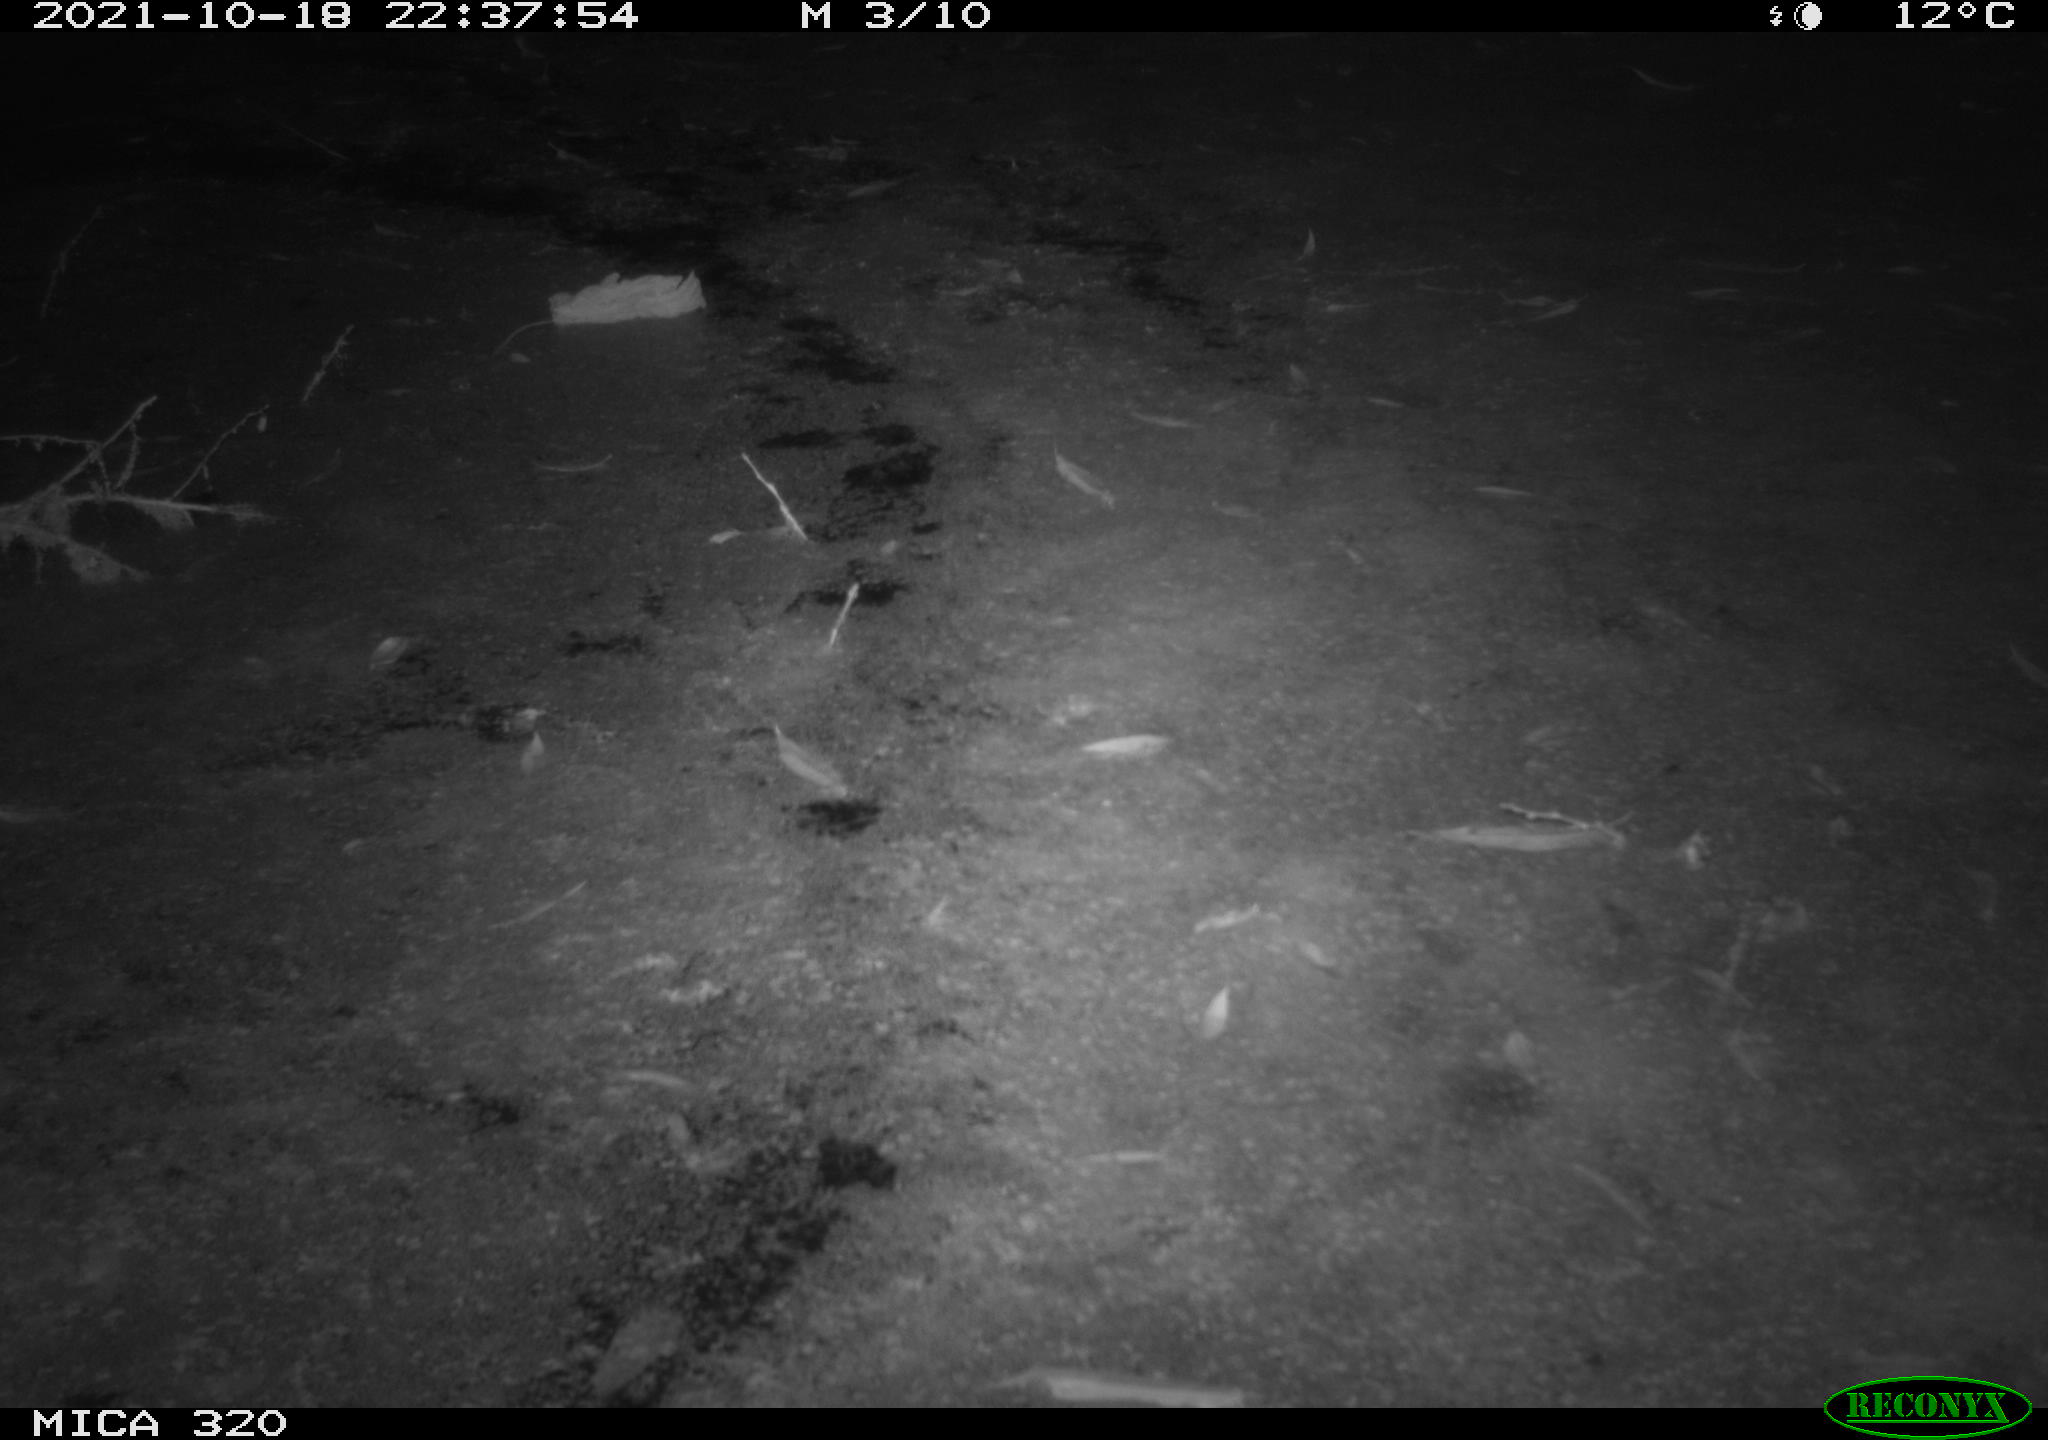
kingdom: Animalia
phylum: Chordata
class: Mammalia
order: Rodentia
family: Muridae
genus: Rattus
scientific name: Rattus norvegicus
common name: Brown rat
